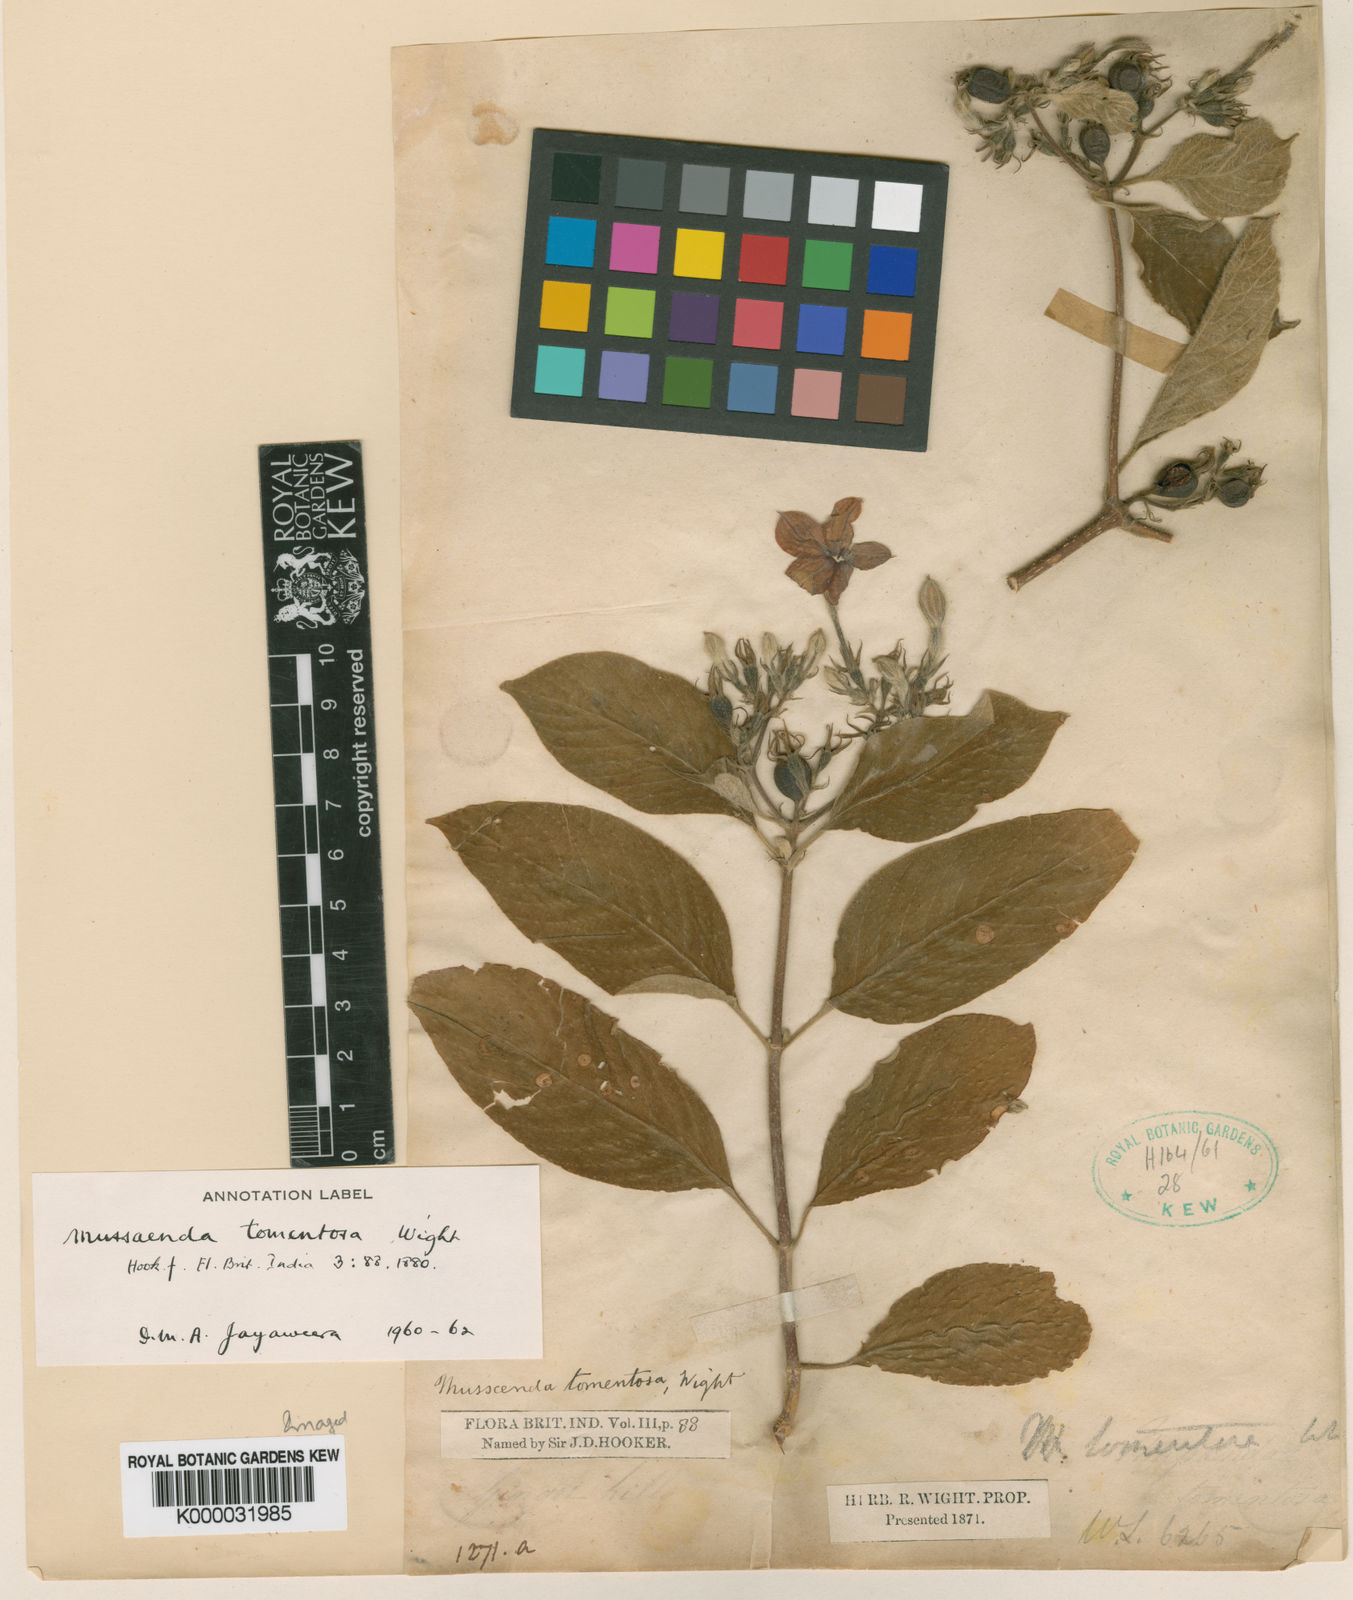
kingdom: Plantae
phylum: Tracheophyta
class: Magnoliopsida
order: Gentianales
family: Rubiaceae
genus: Mussaenda
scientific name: Mussaenda
